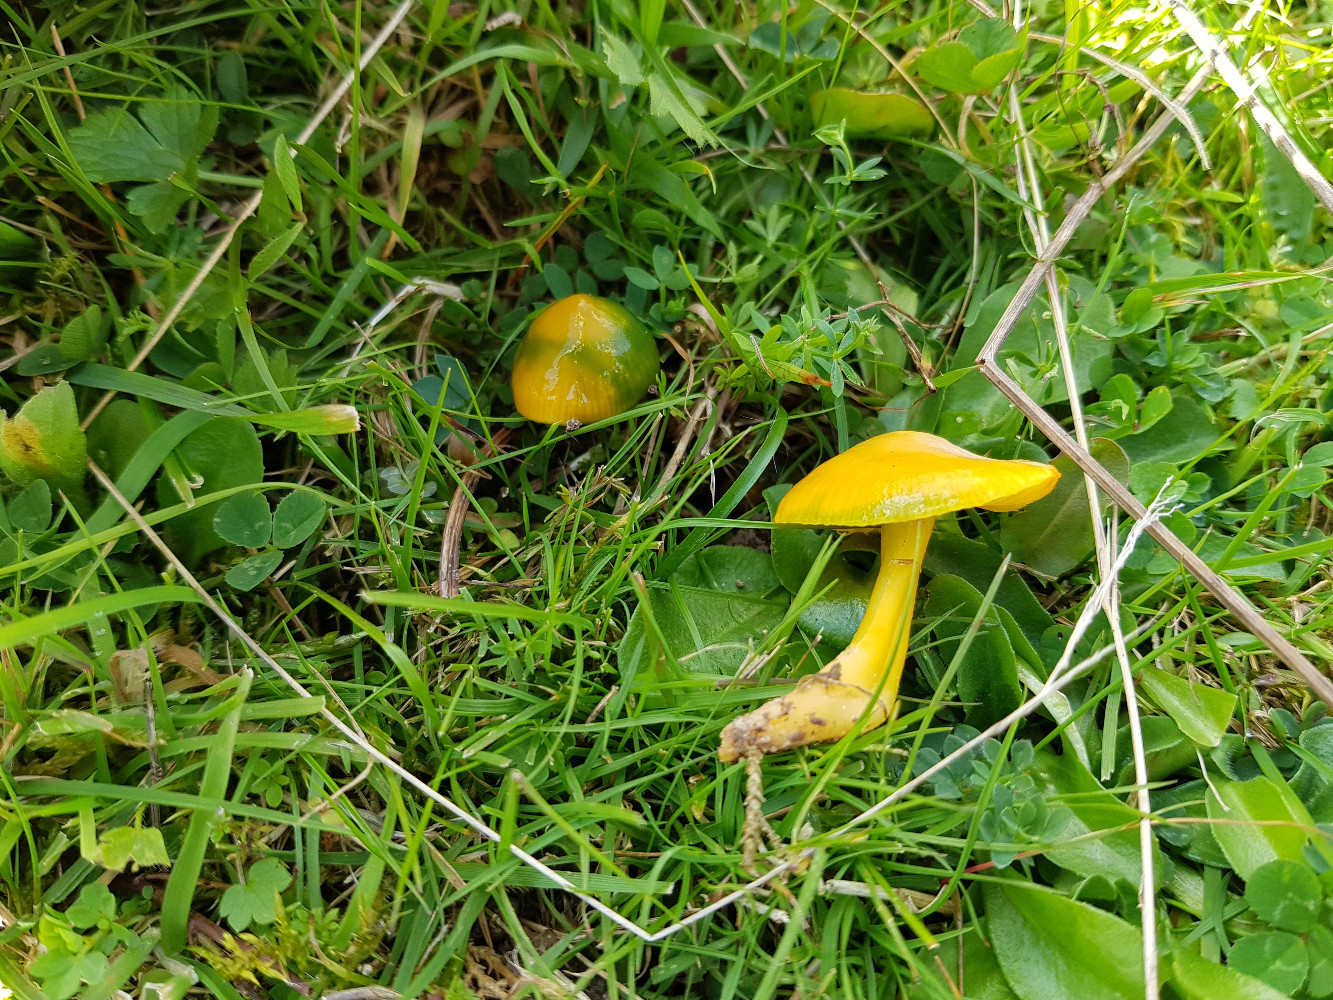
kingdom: Fungi
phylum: Basidiomycota
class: Agaricomycetes
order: Agaricales
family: Hygrophoraceae
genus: Gliophorus
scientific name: Gliophorus psittacinus
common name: papegøje-vokshat
